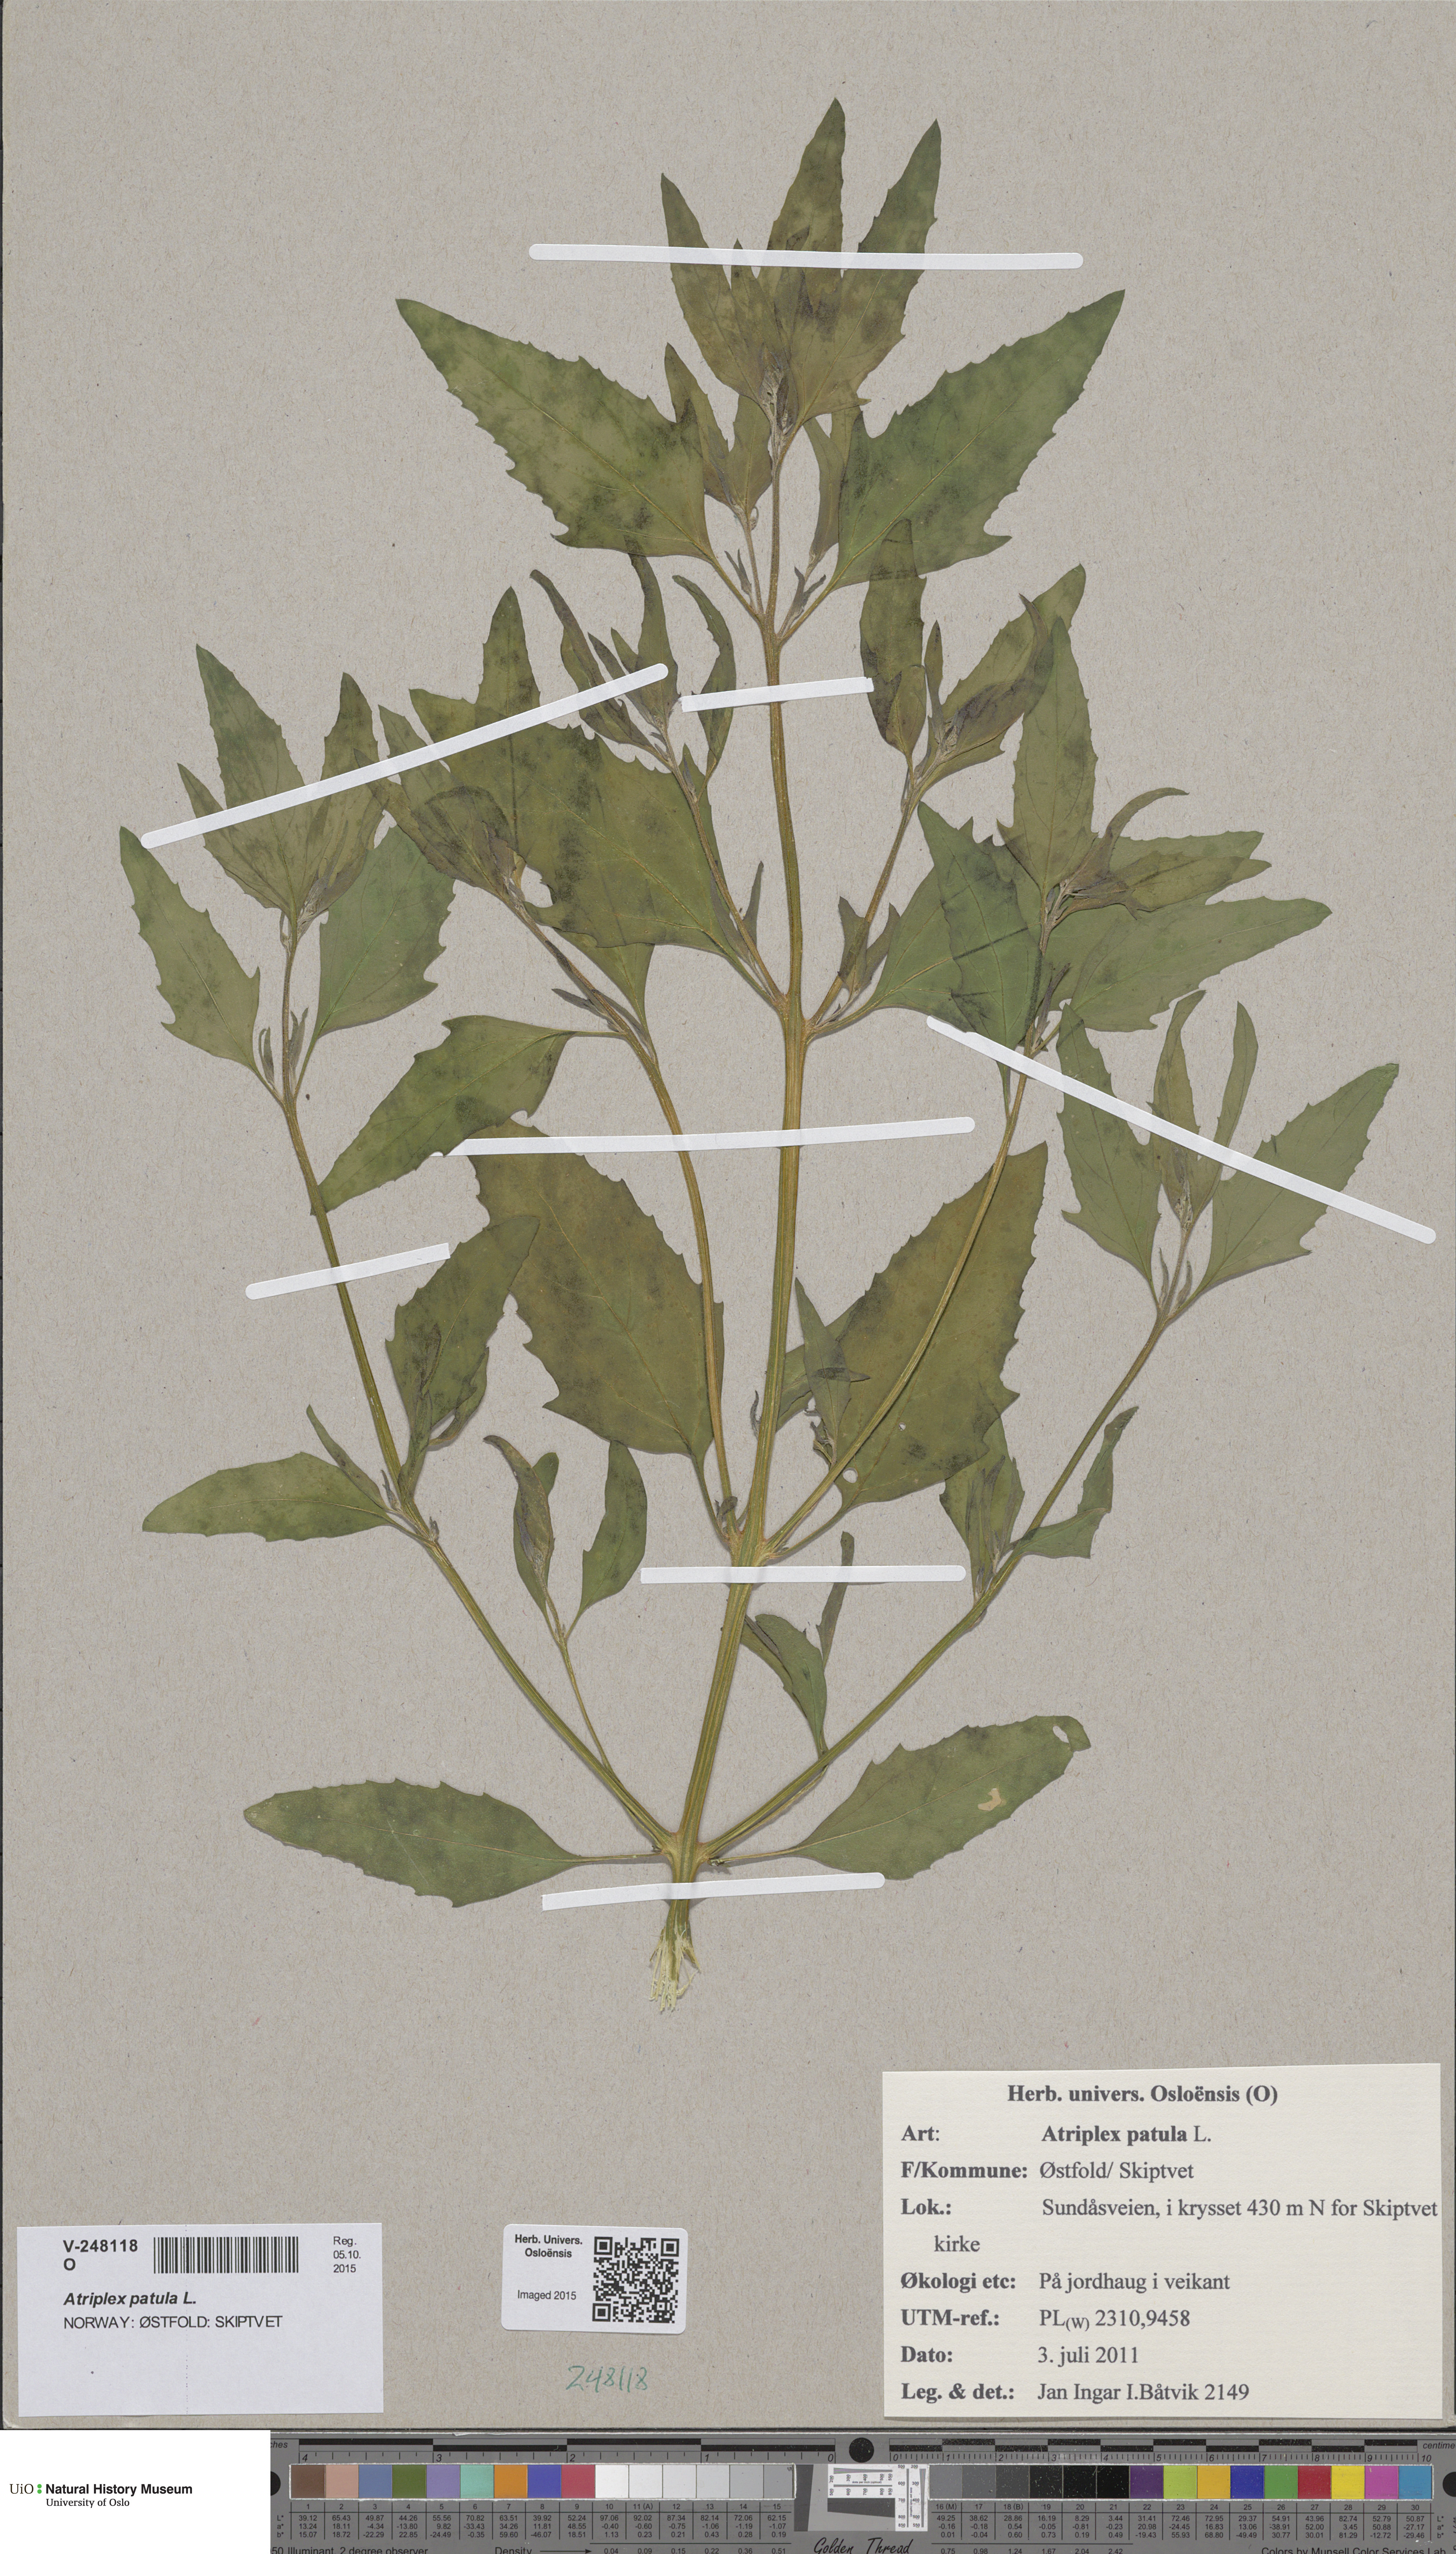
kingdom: Plantae
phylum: Tracheophyta
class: Magnoliopsida
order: Caryophyllales
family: Amaranthaceae
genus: Atriplex
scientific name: Atriplex patula
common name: Common orache
